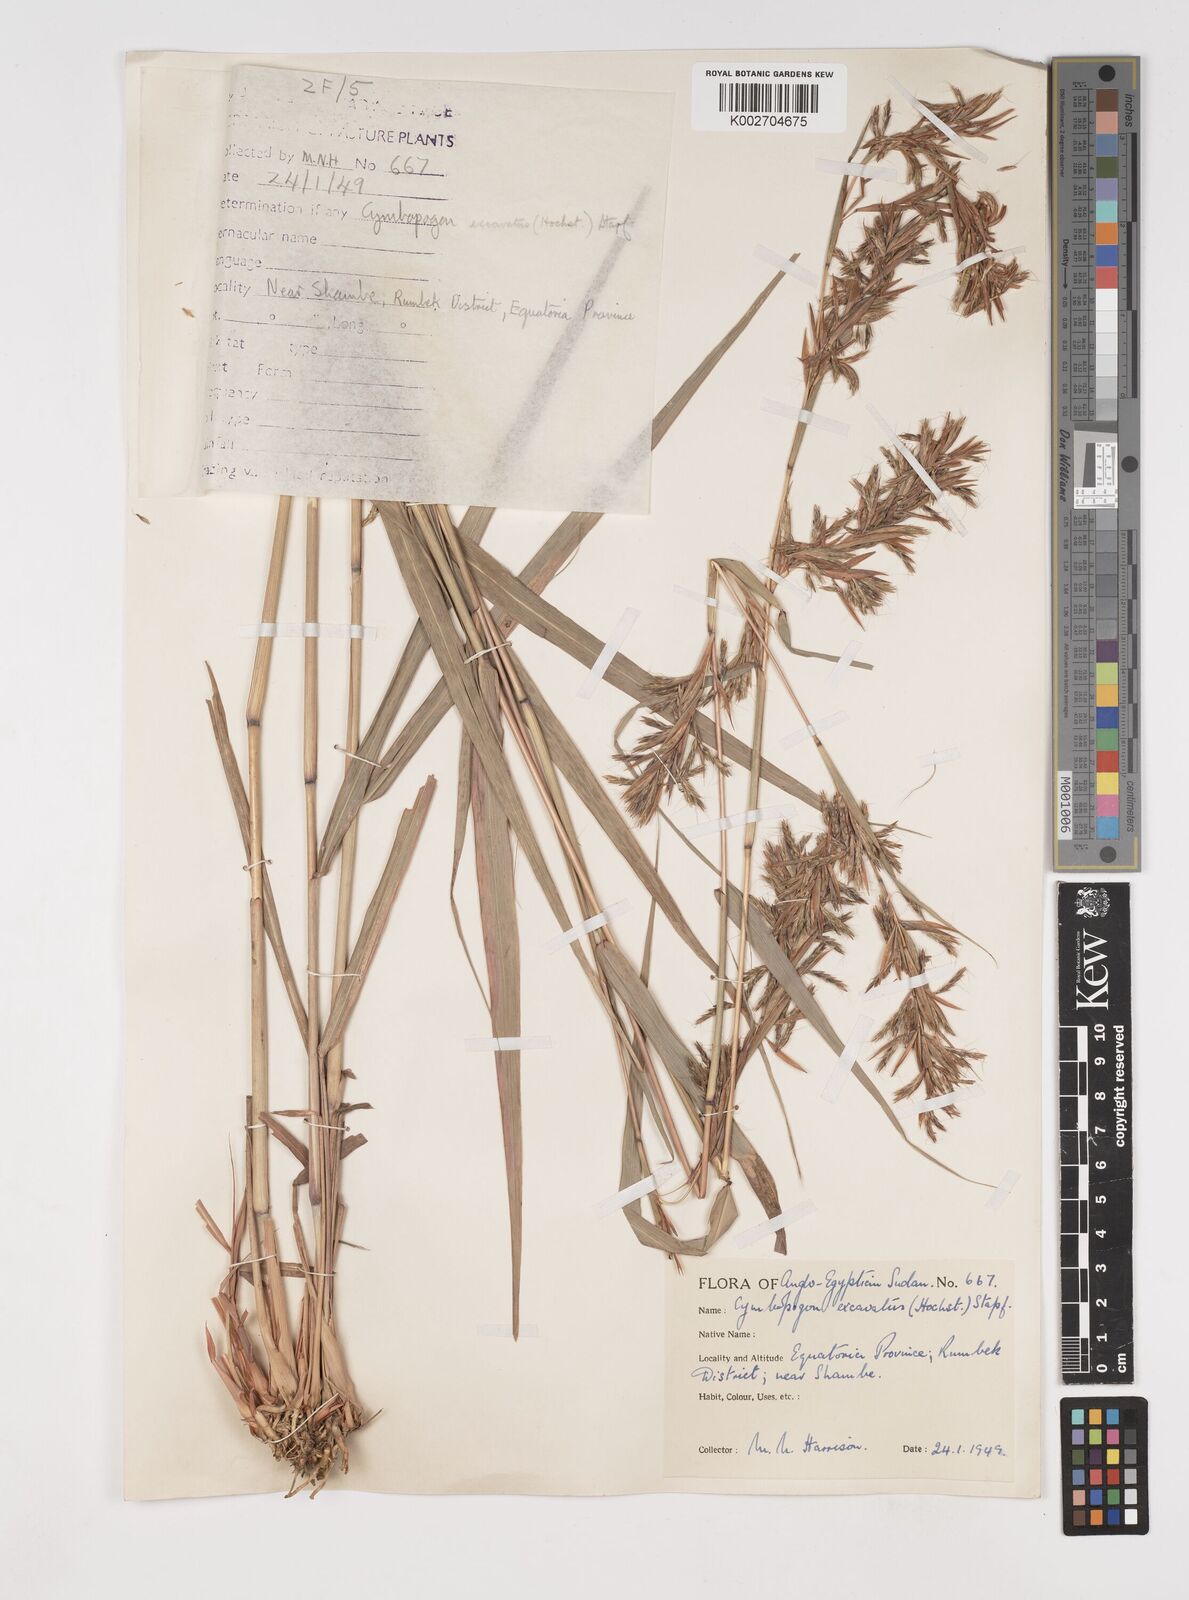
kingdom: Plantae
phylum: Tracheophyta
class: Liliopsida
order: Poales
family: Poaceae
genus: Cymbopogon
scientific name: Cymbopogon giganteus
